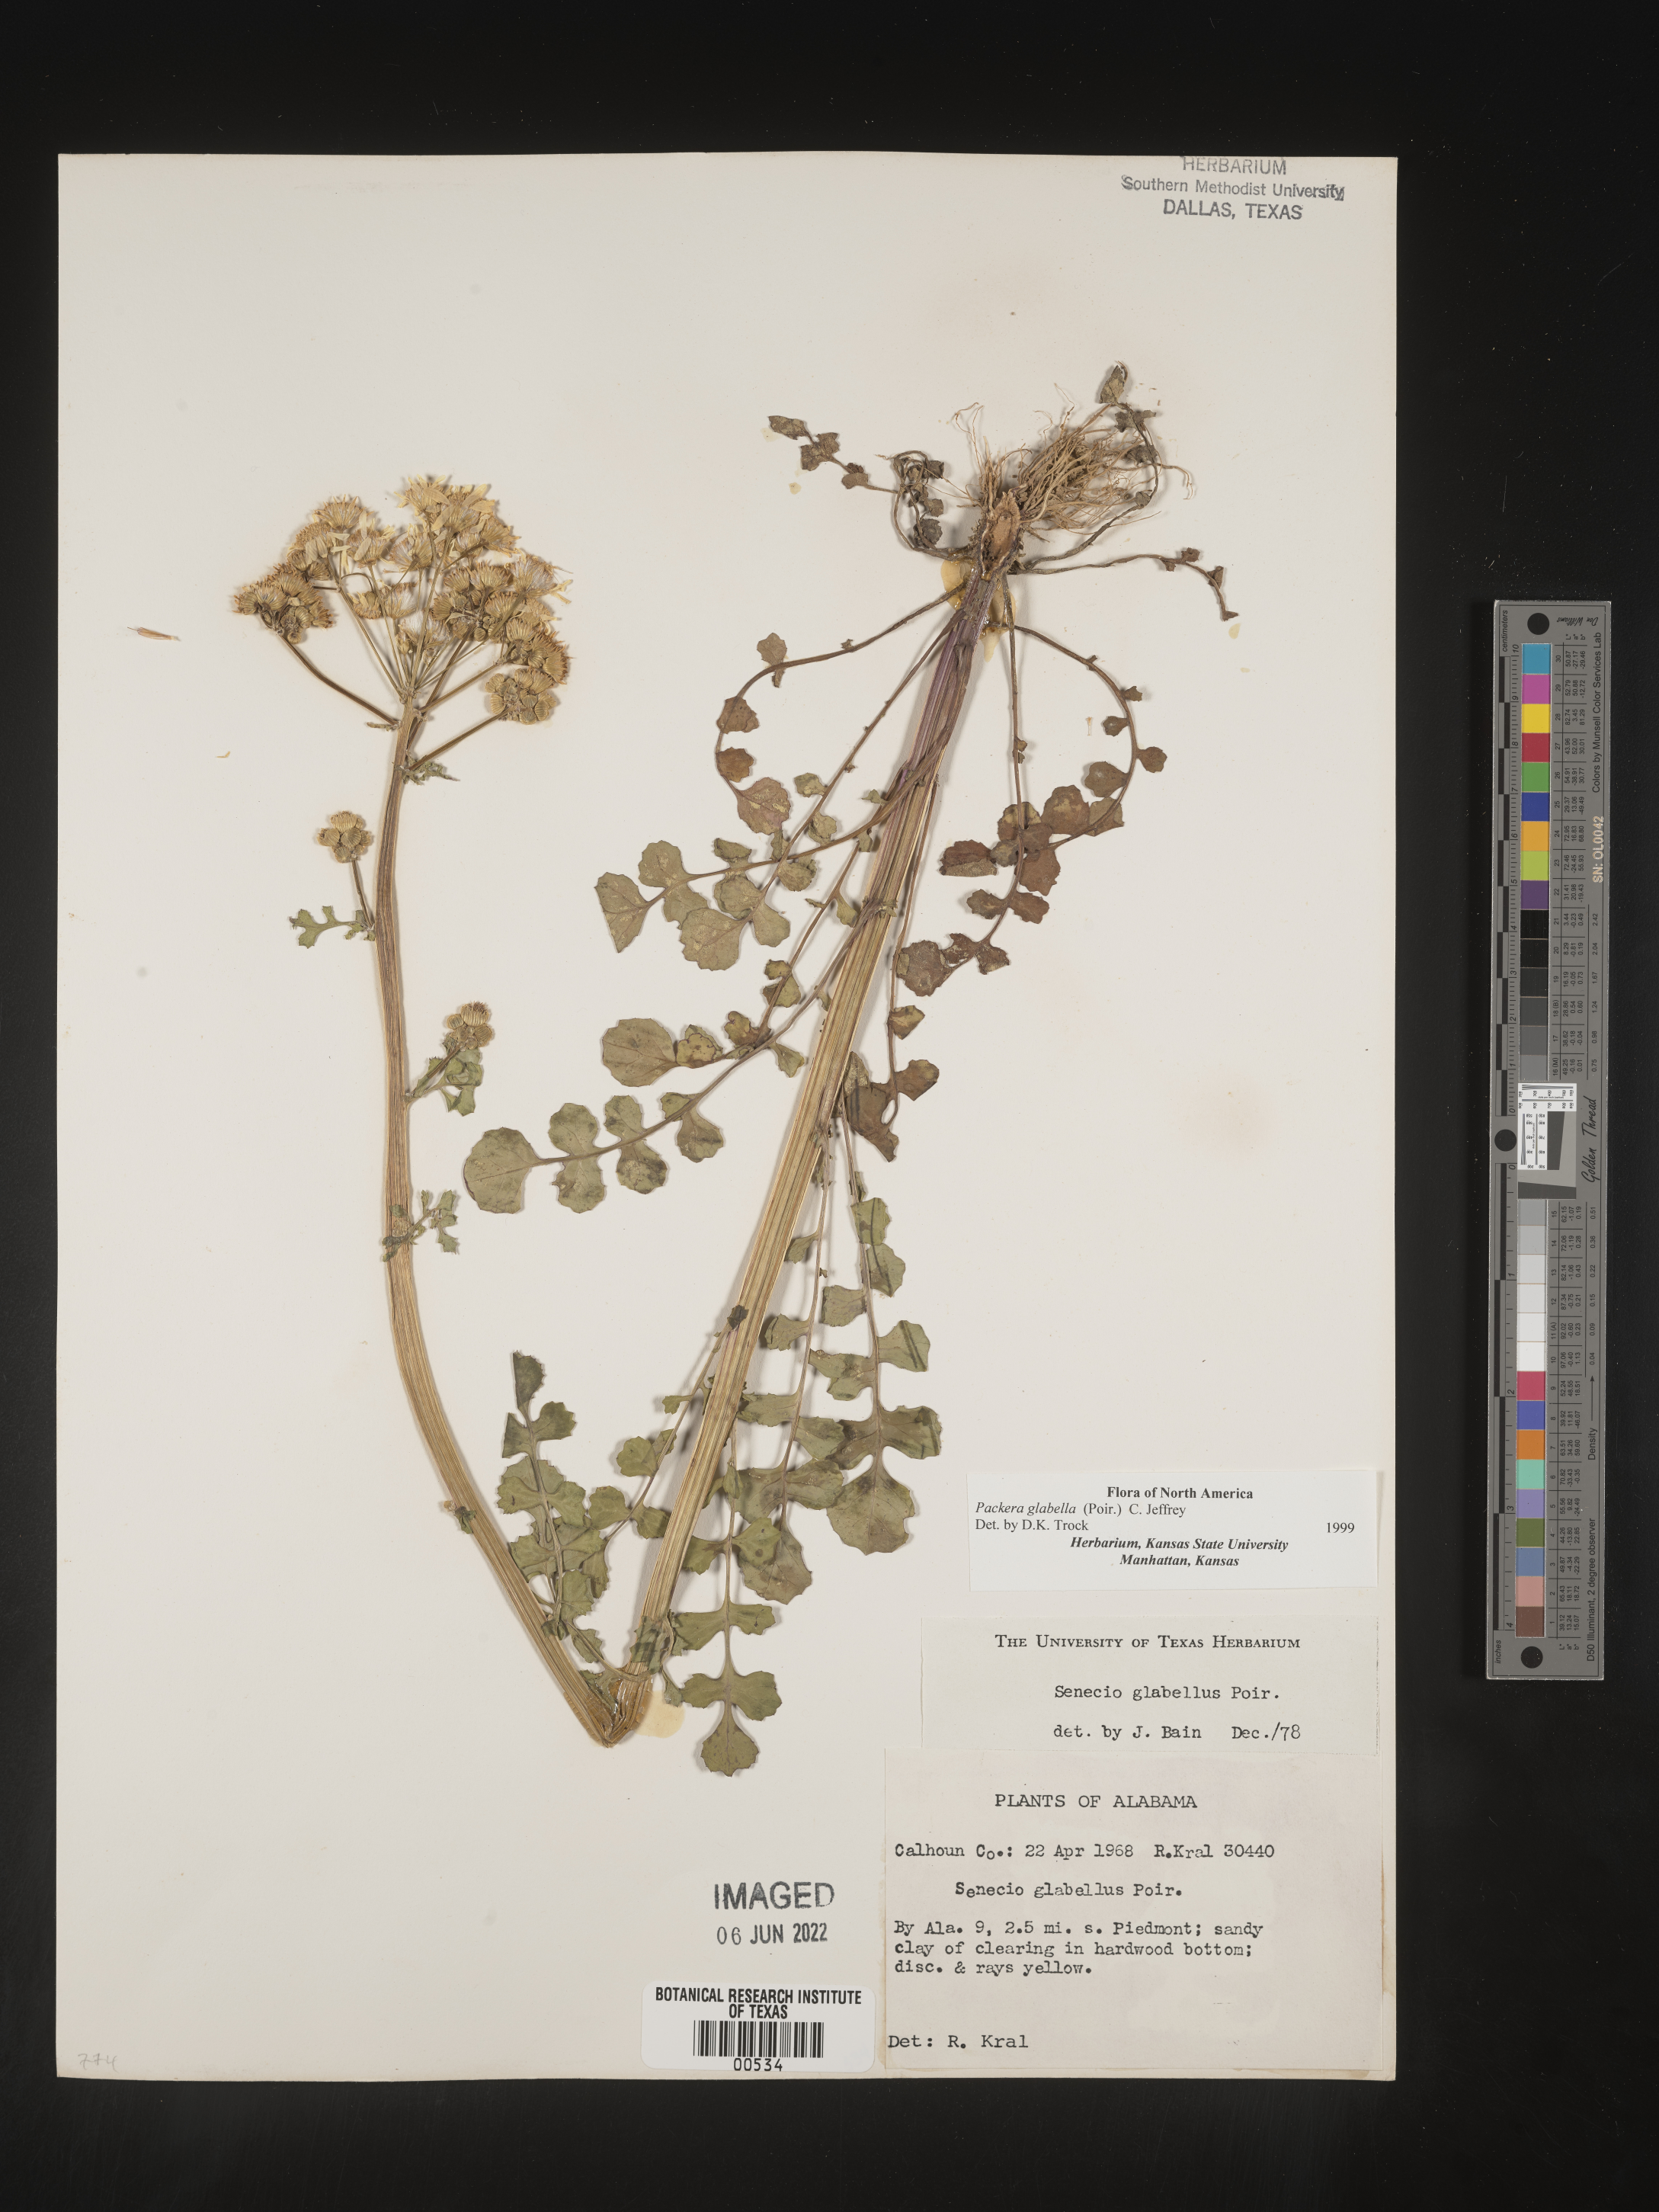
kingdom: Plantae
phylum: Tracheophyta
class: Magnoliopsida
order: Asterales
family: Asteraceae
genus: Packera
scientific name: Packera glabella
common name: Butterweed
